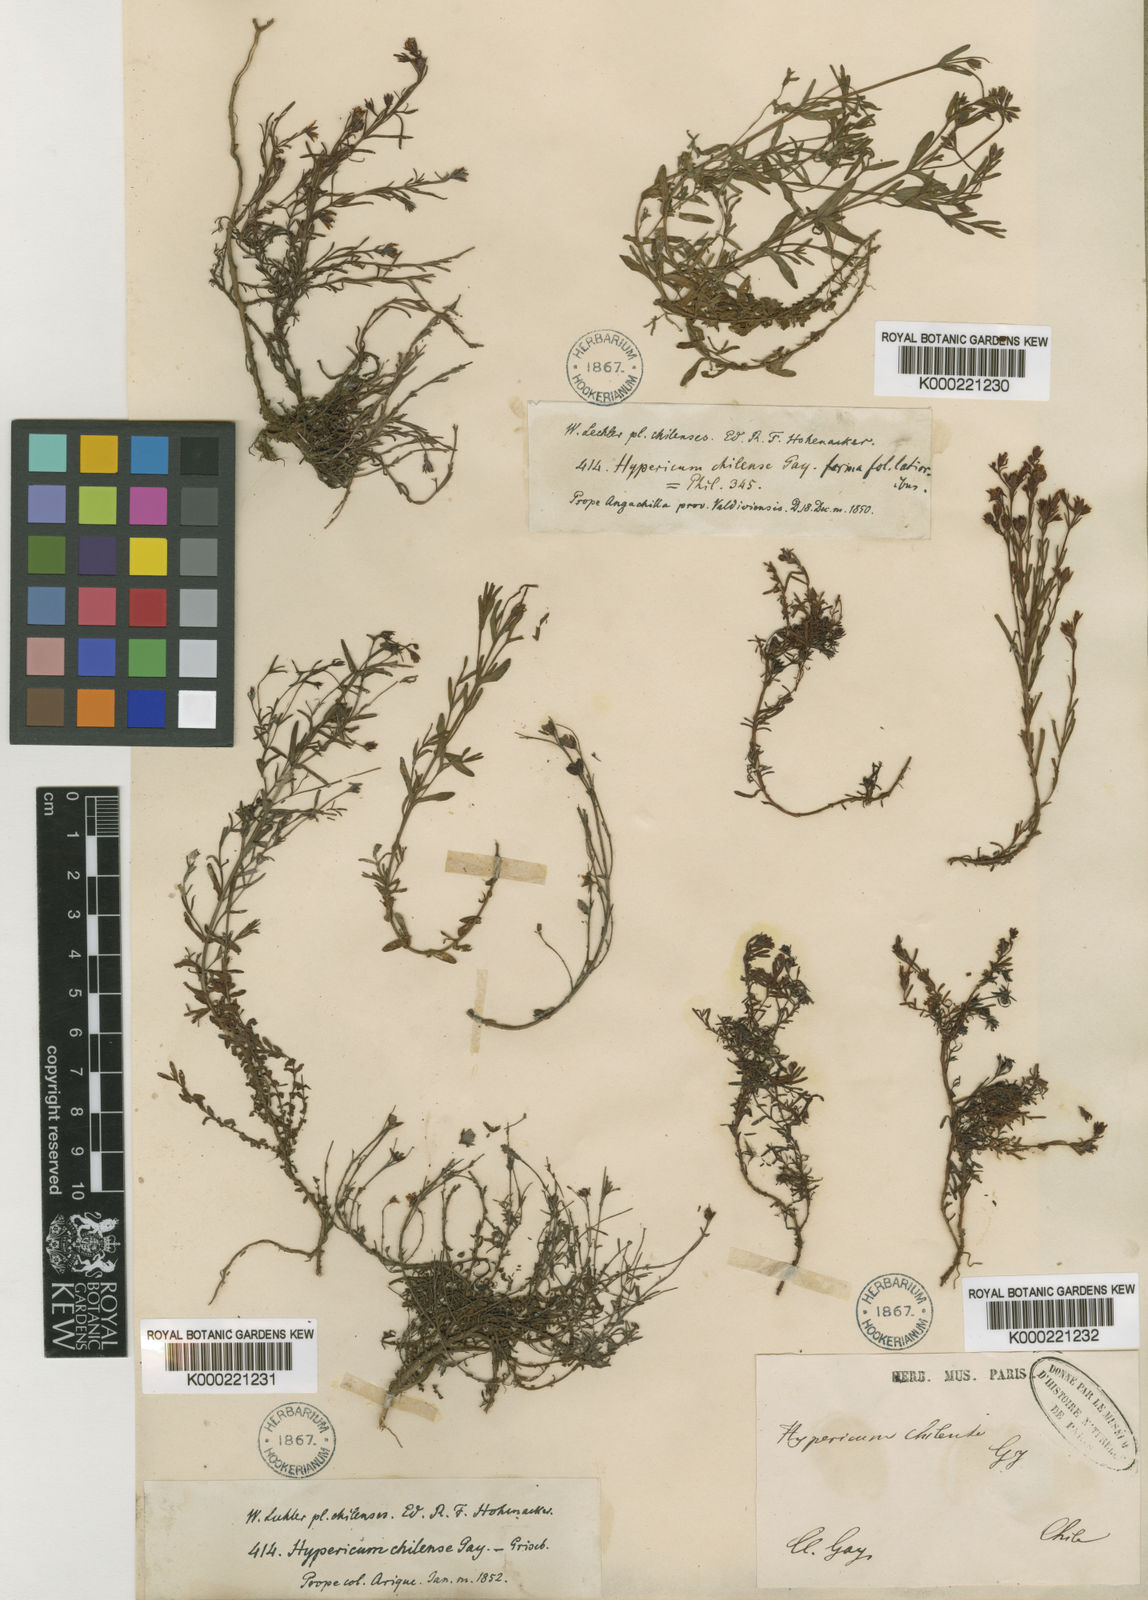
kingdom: Plantae
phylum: Tracheophyta
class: Magnoliopsida
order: Malpighiales
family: Hypericaceae
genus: Hypericum
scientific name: Hypericum caespitosum
